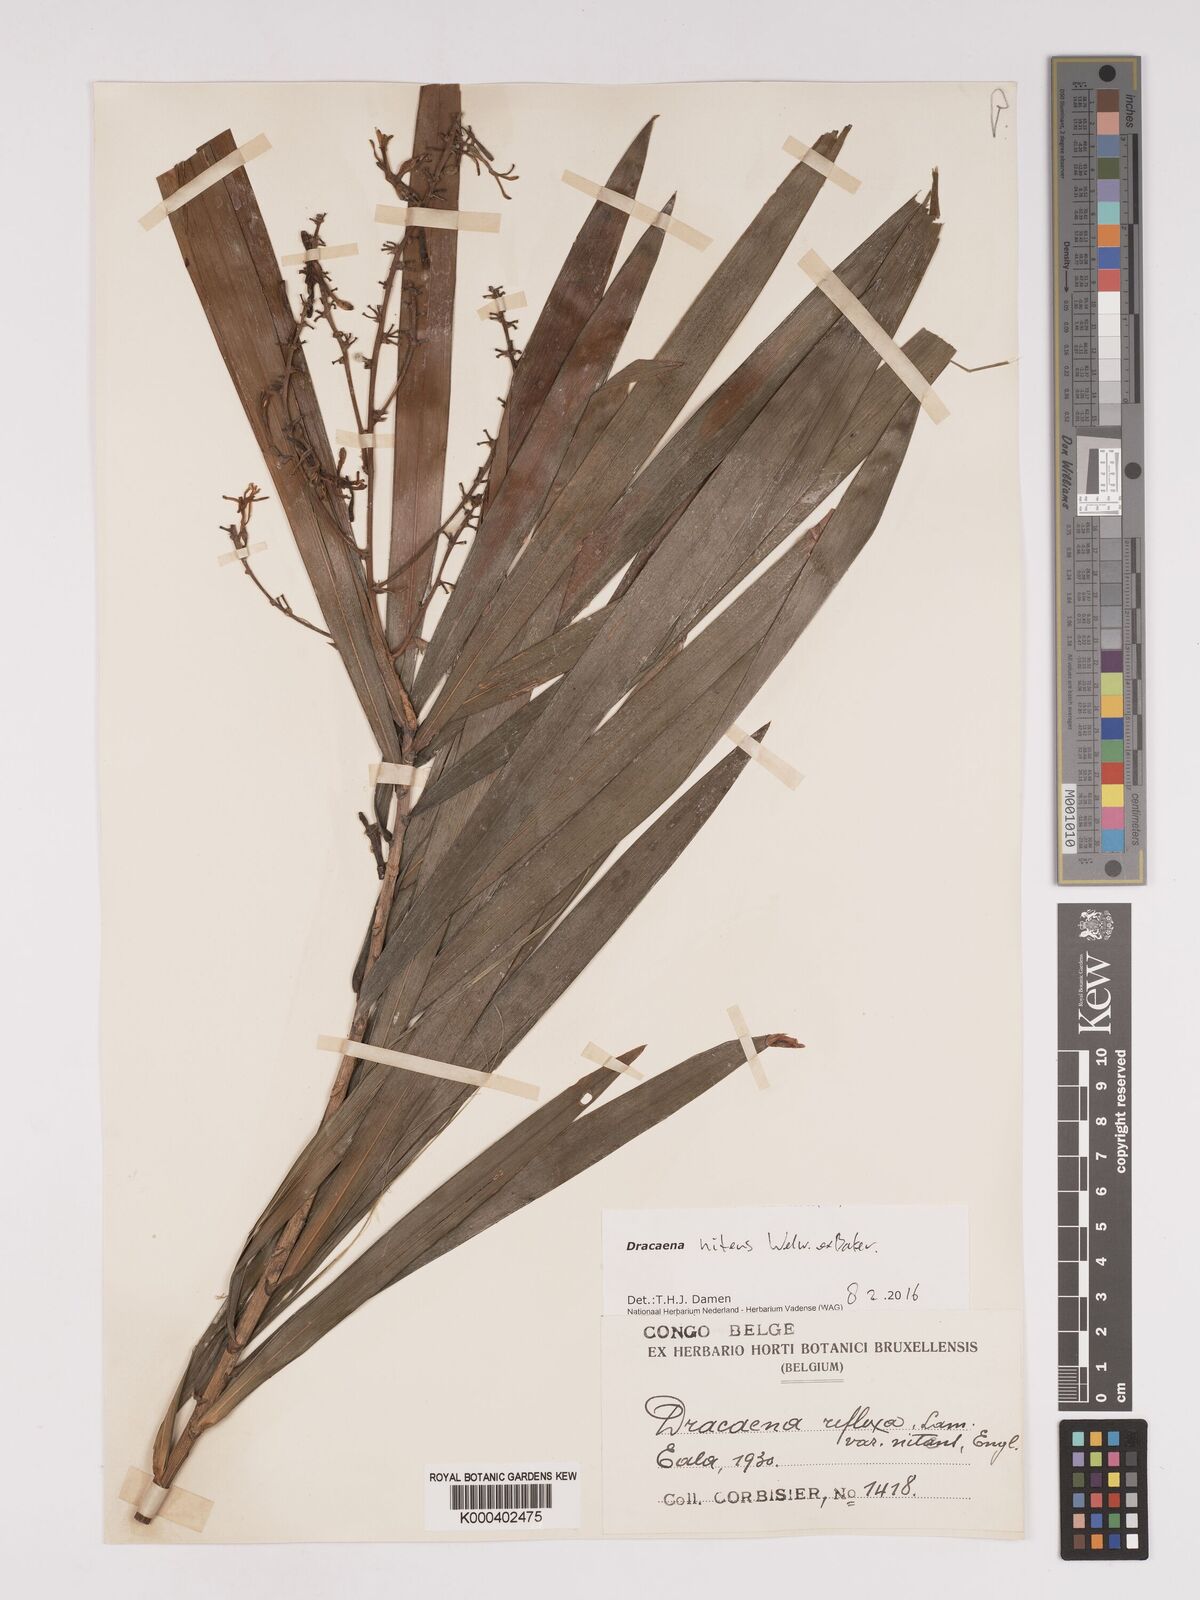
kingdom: Plantae
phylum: Tracheophyta
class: Liliopsida
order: Asparagales
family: Asparagaceae
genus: Dracaena
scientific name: Dracaena nitens
